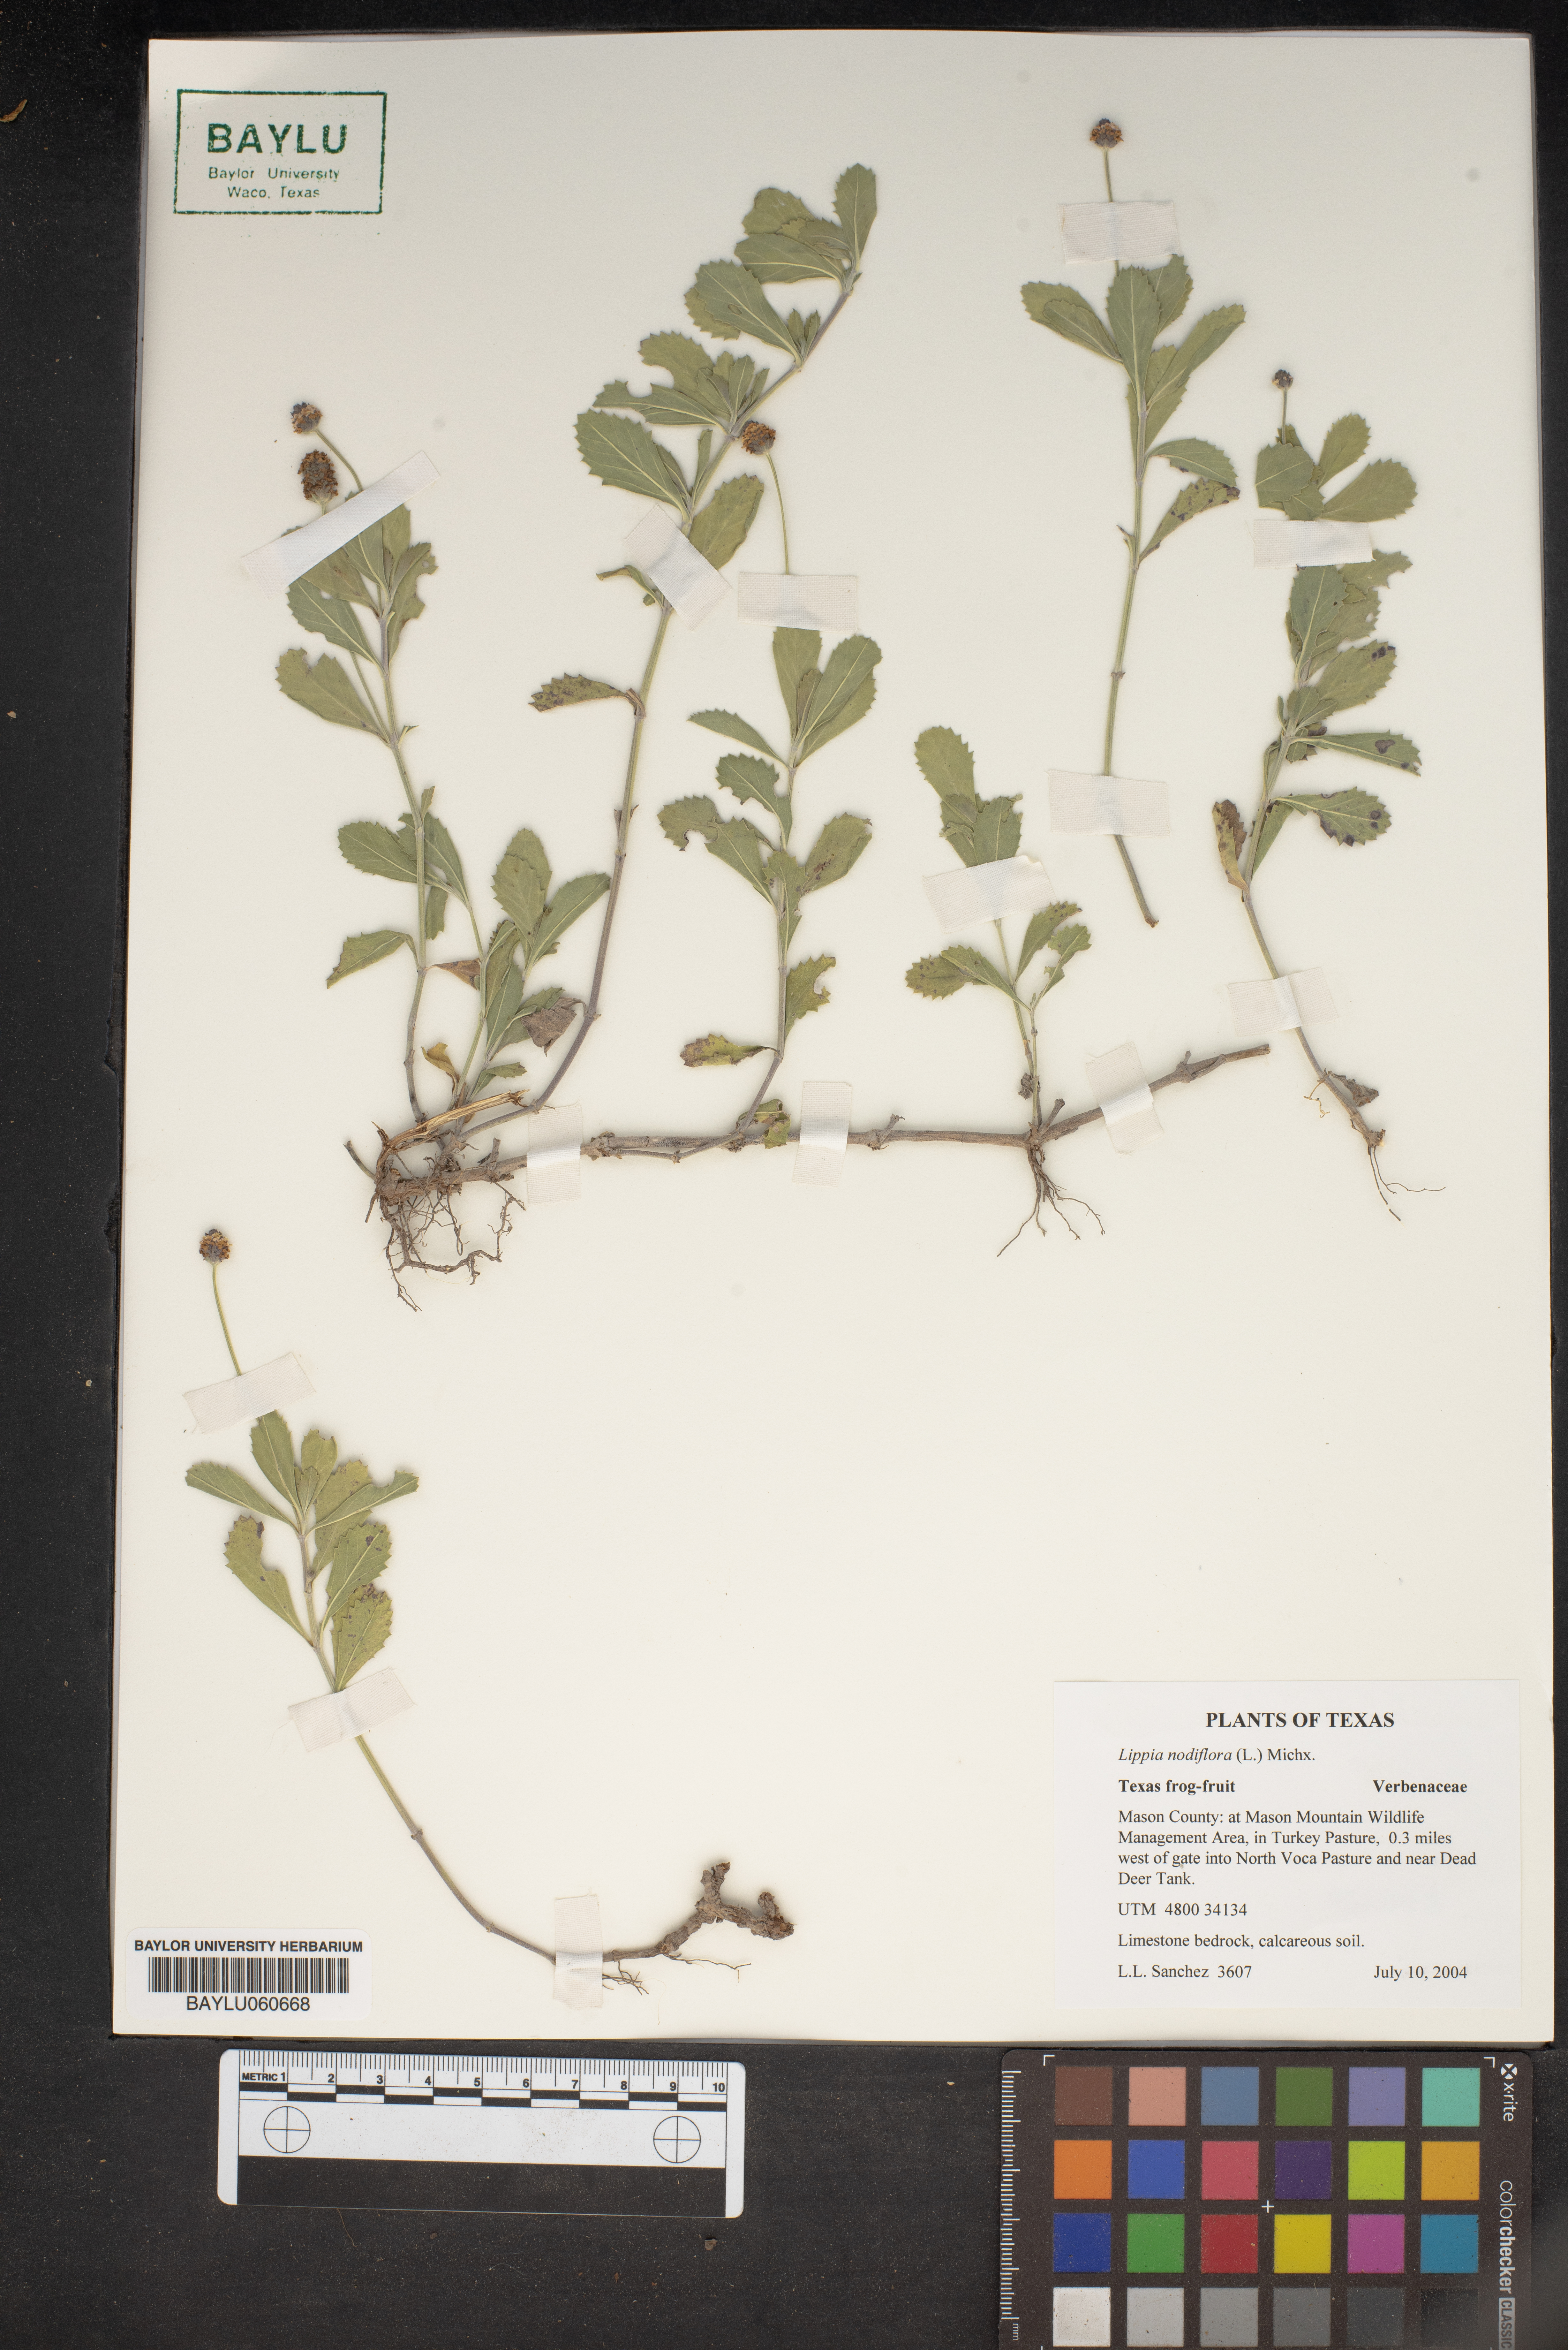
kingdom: Plantae
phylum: Tracheophyta
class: Magnoliopsida
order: Lamiales
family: Verbenaceae
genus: Phyla
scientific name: Phyla nodiflora
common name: Frogfruit
